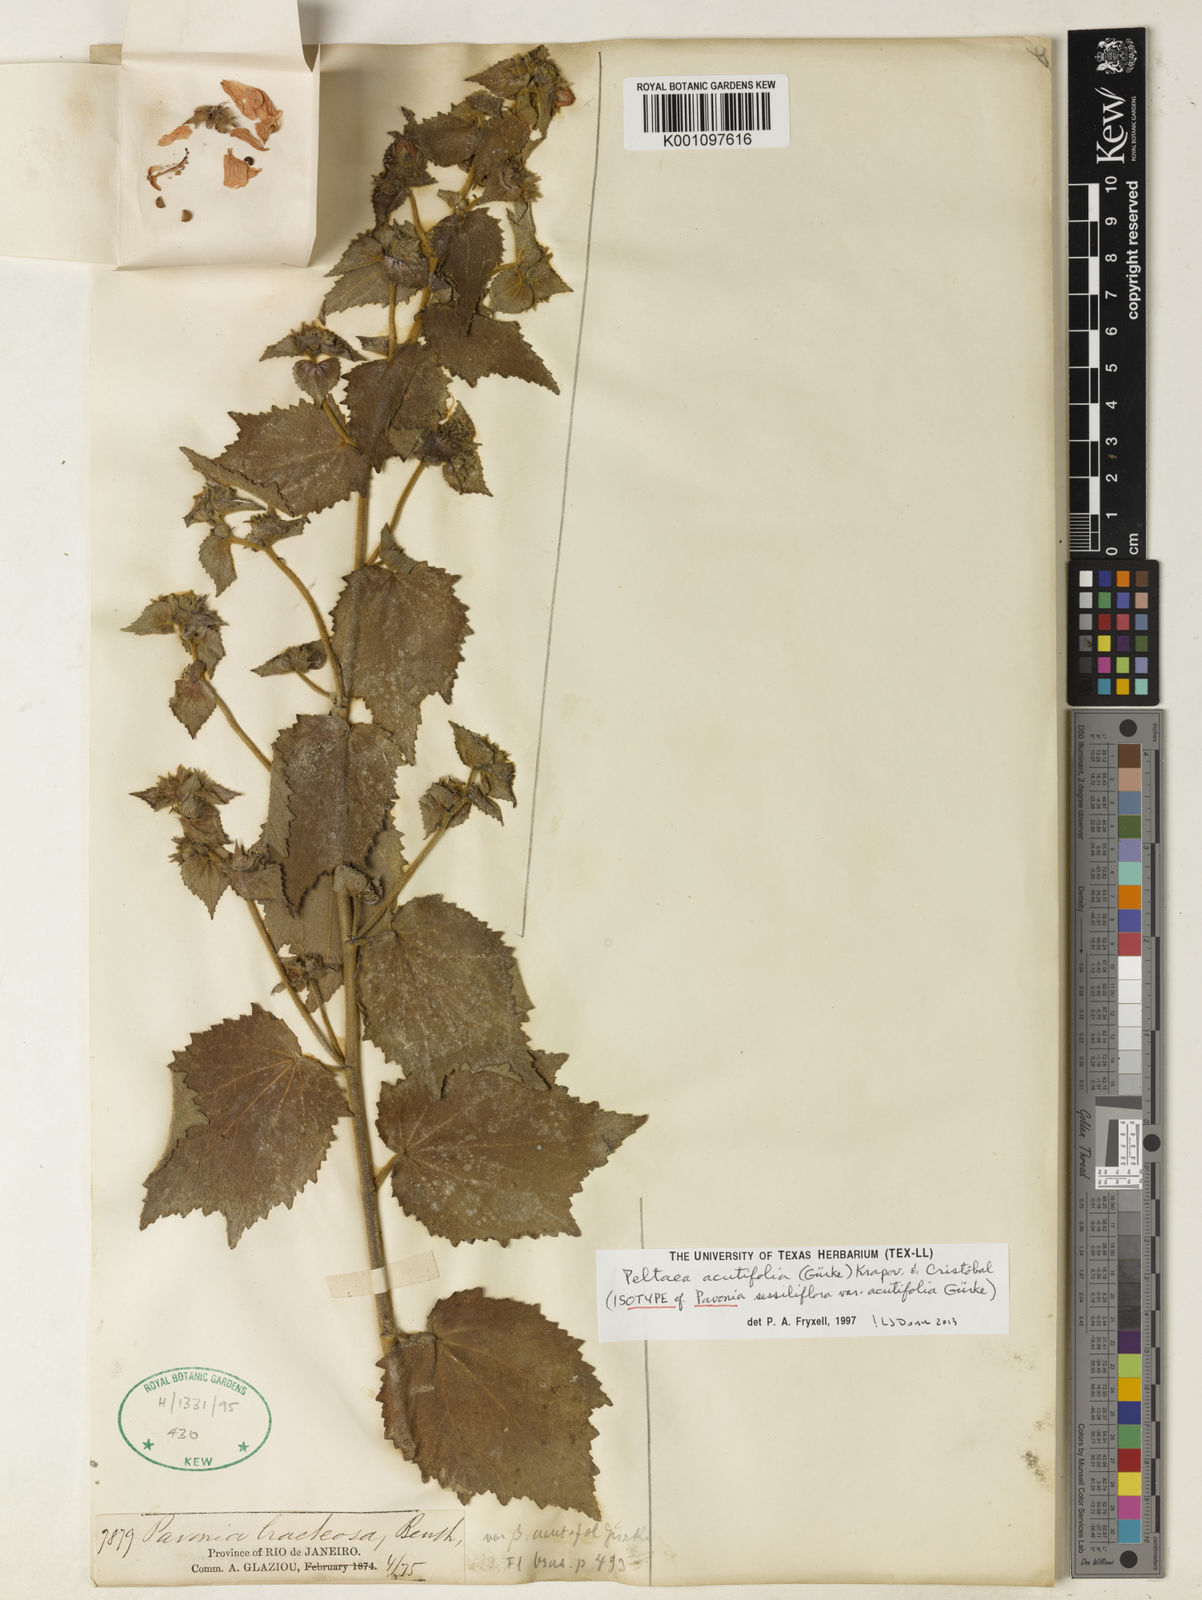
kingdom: Plantae
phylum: Tracheophyta
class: Magnoliopsida
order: Malvales
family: Malvaceae
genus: Peltaea
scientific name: Peltaea
